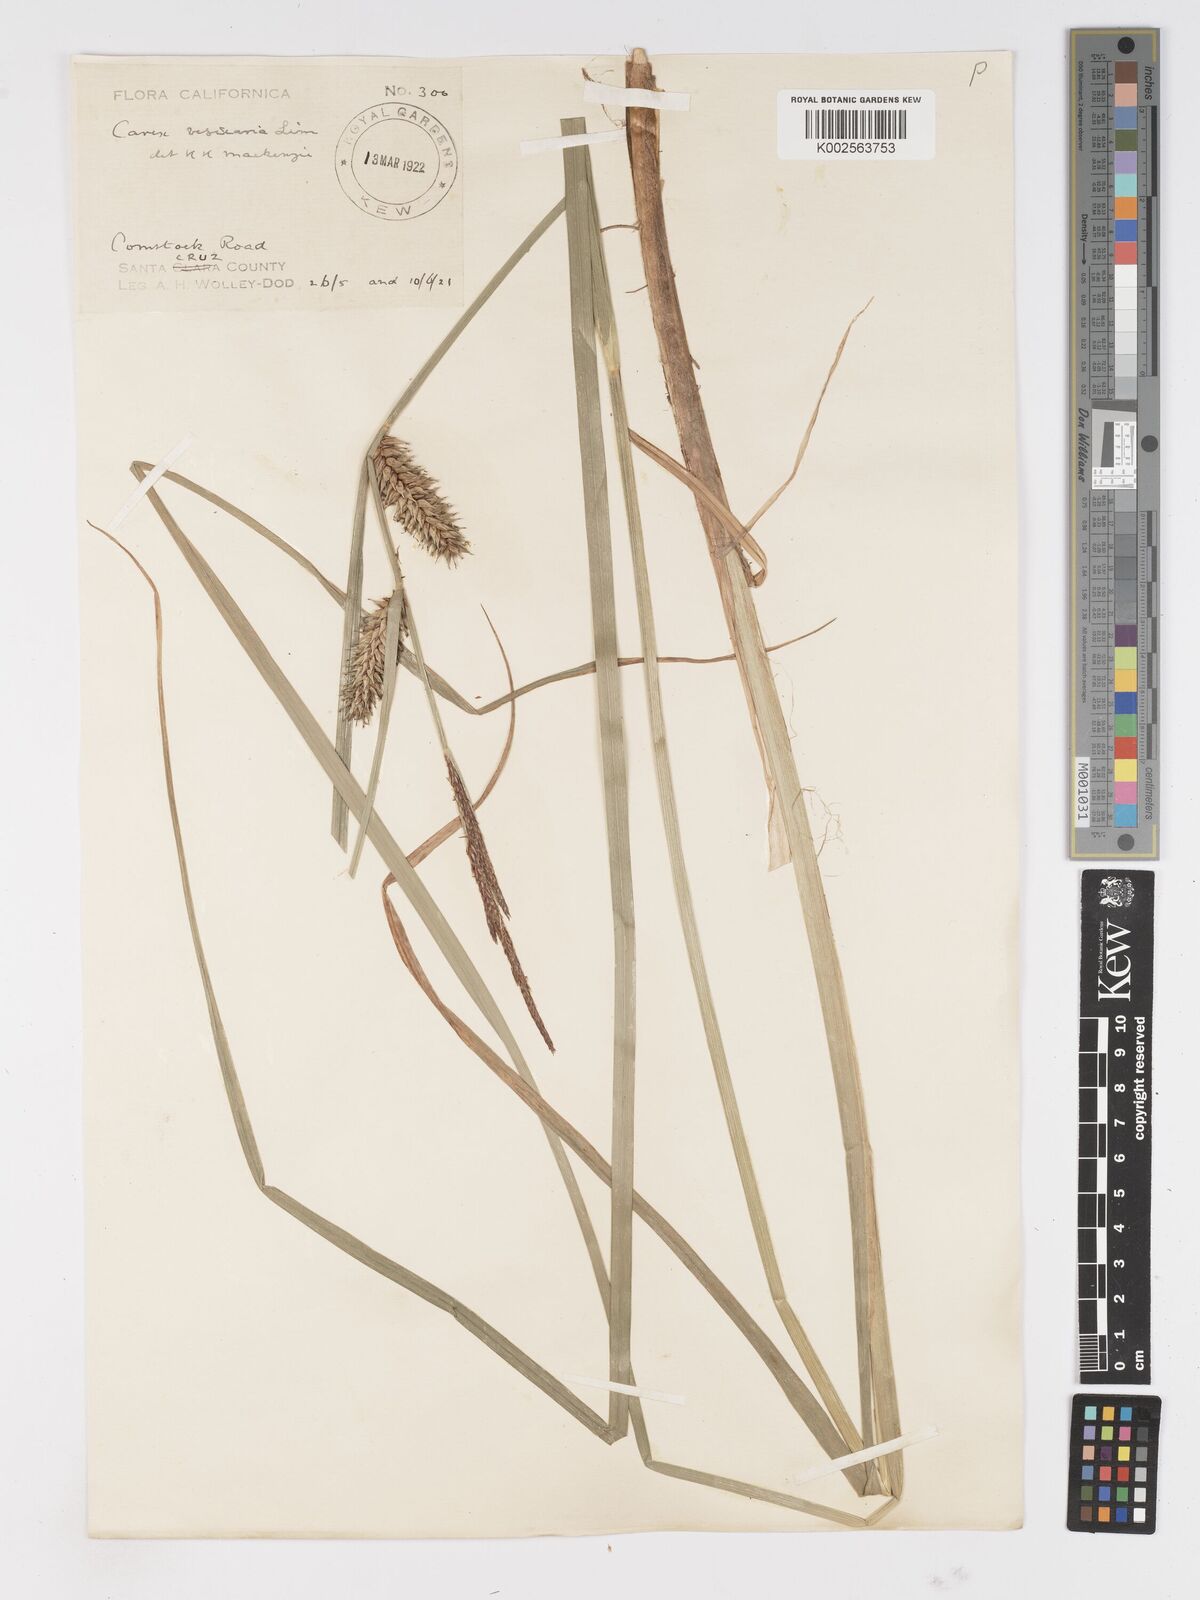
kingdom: Plantae
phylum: Tracheophyta
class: Liliopsida
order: Poales
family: Cyperaceae
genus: Carex
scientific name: Carex vesicaria
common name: Bladder-sedge
